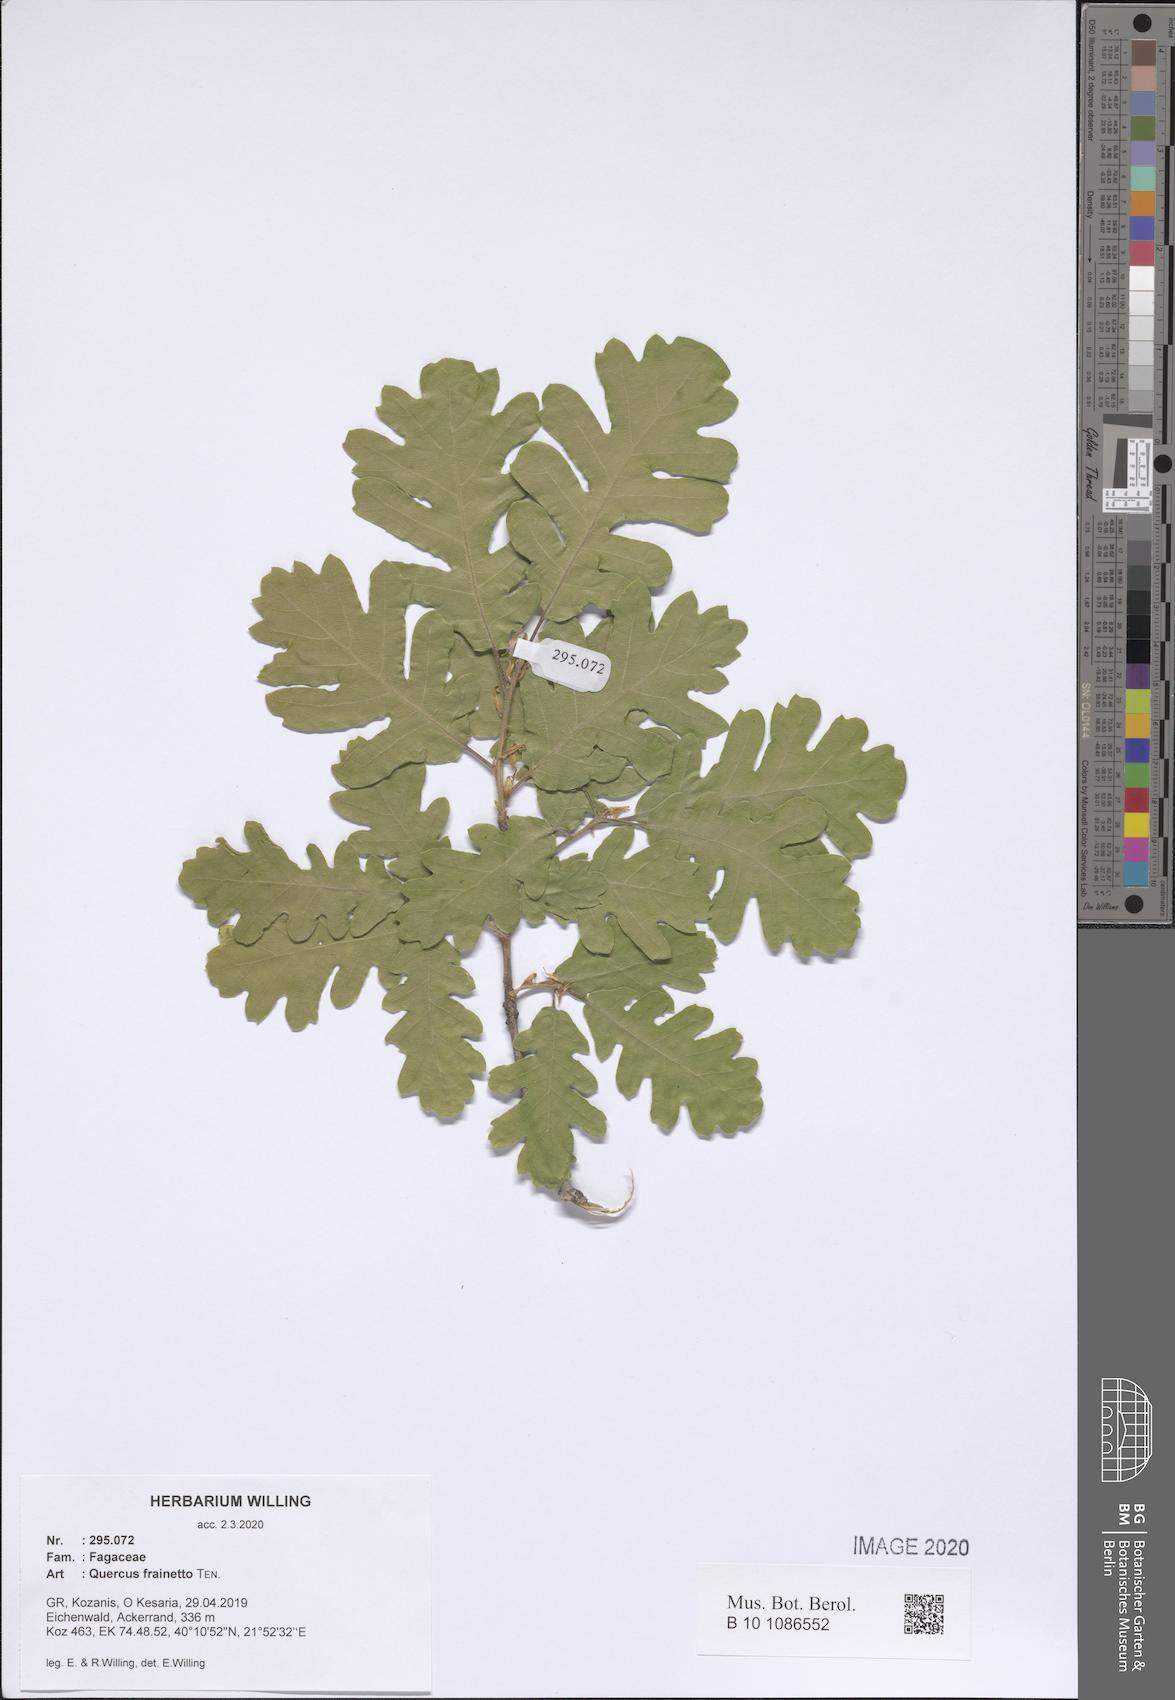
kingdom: Plantae
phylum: Tracheophyta
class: Magnoliopsida
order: Fagales
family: Fagaceae
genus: Quercus
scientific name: Quercus conferta
